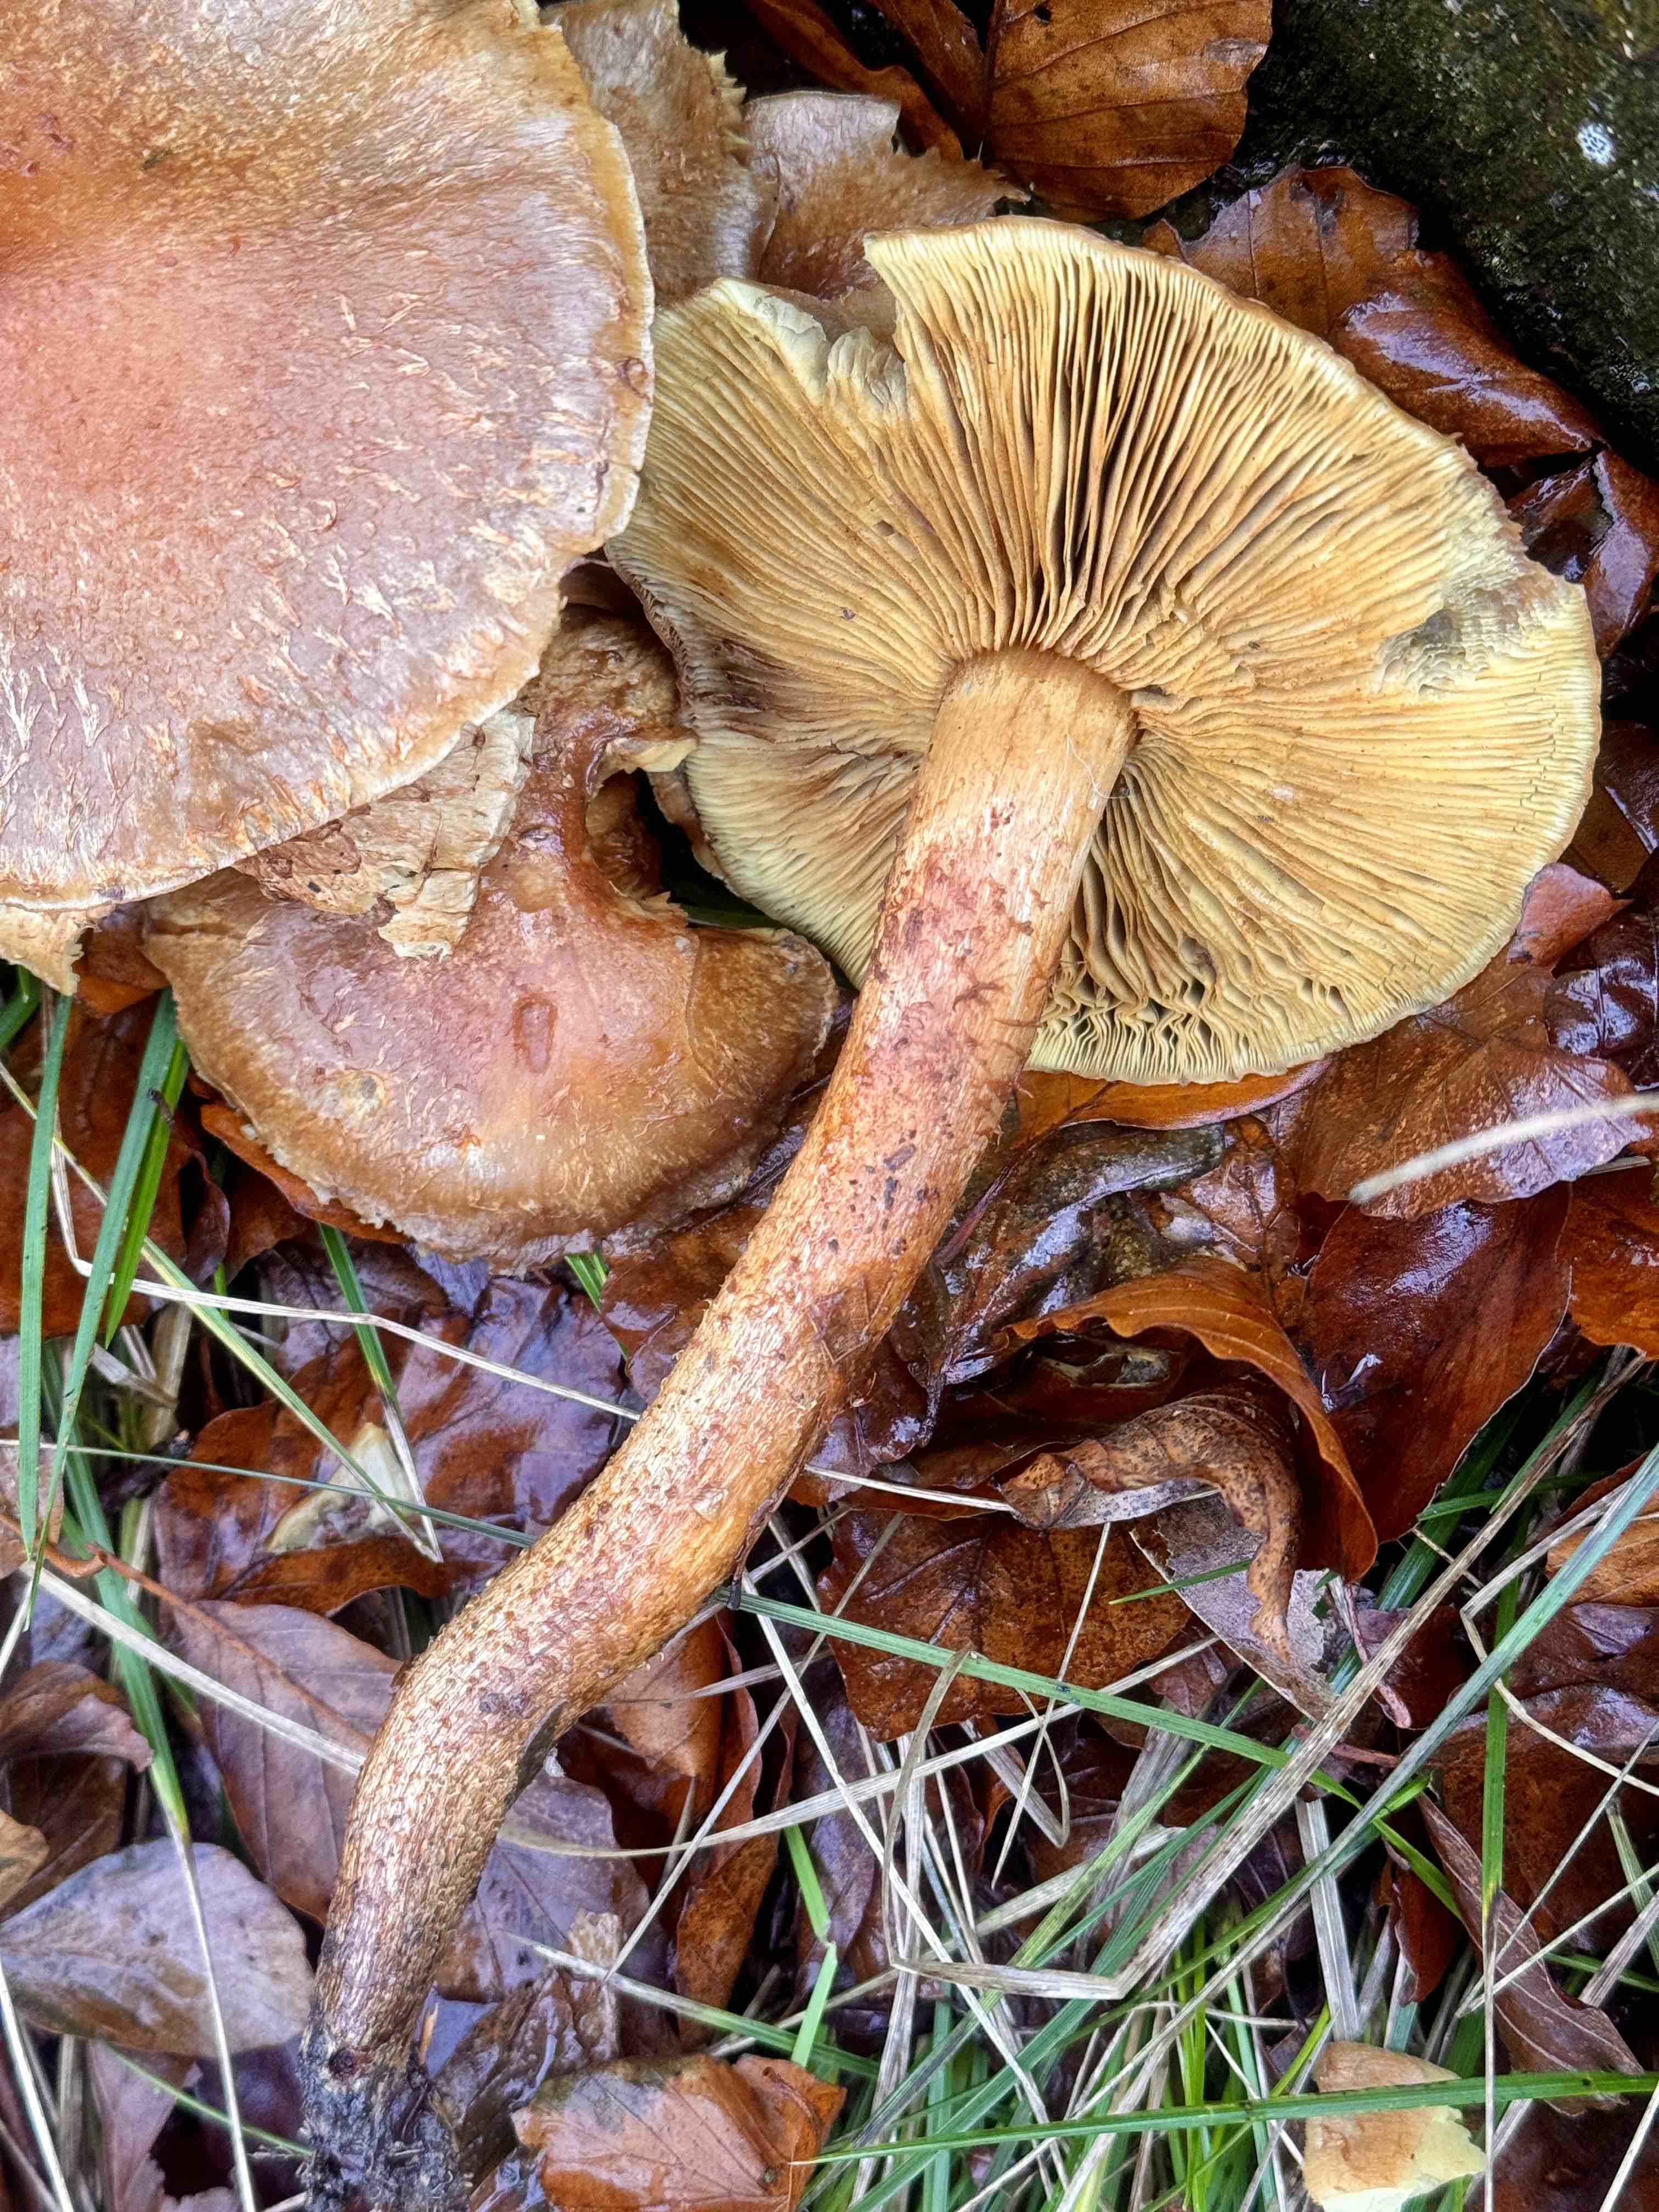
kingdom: Fungi
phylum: Basidiomycota
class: Agaricomycetes
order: Agaricales
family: Strophariaceae
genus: Pholiota
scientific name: Pholiota squarrosa
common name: krumskællet skælhat
